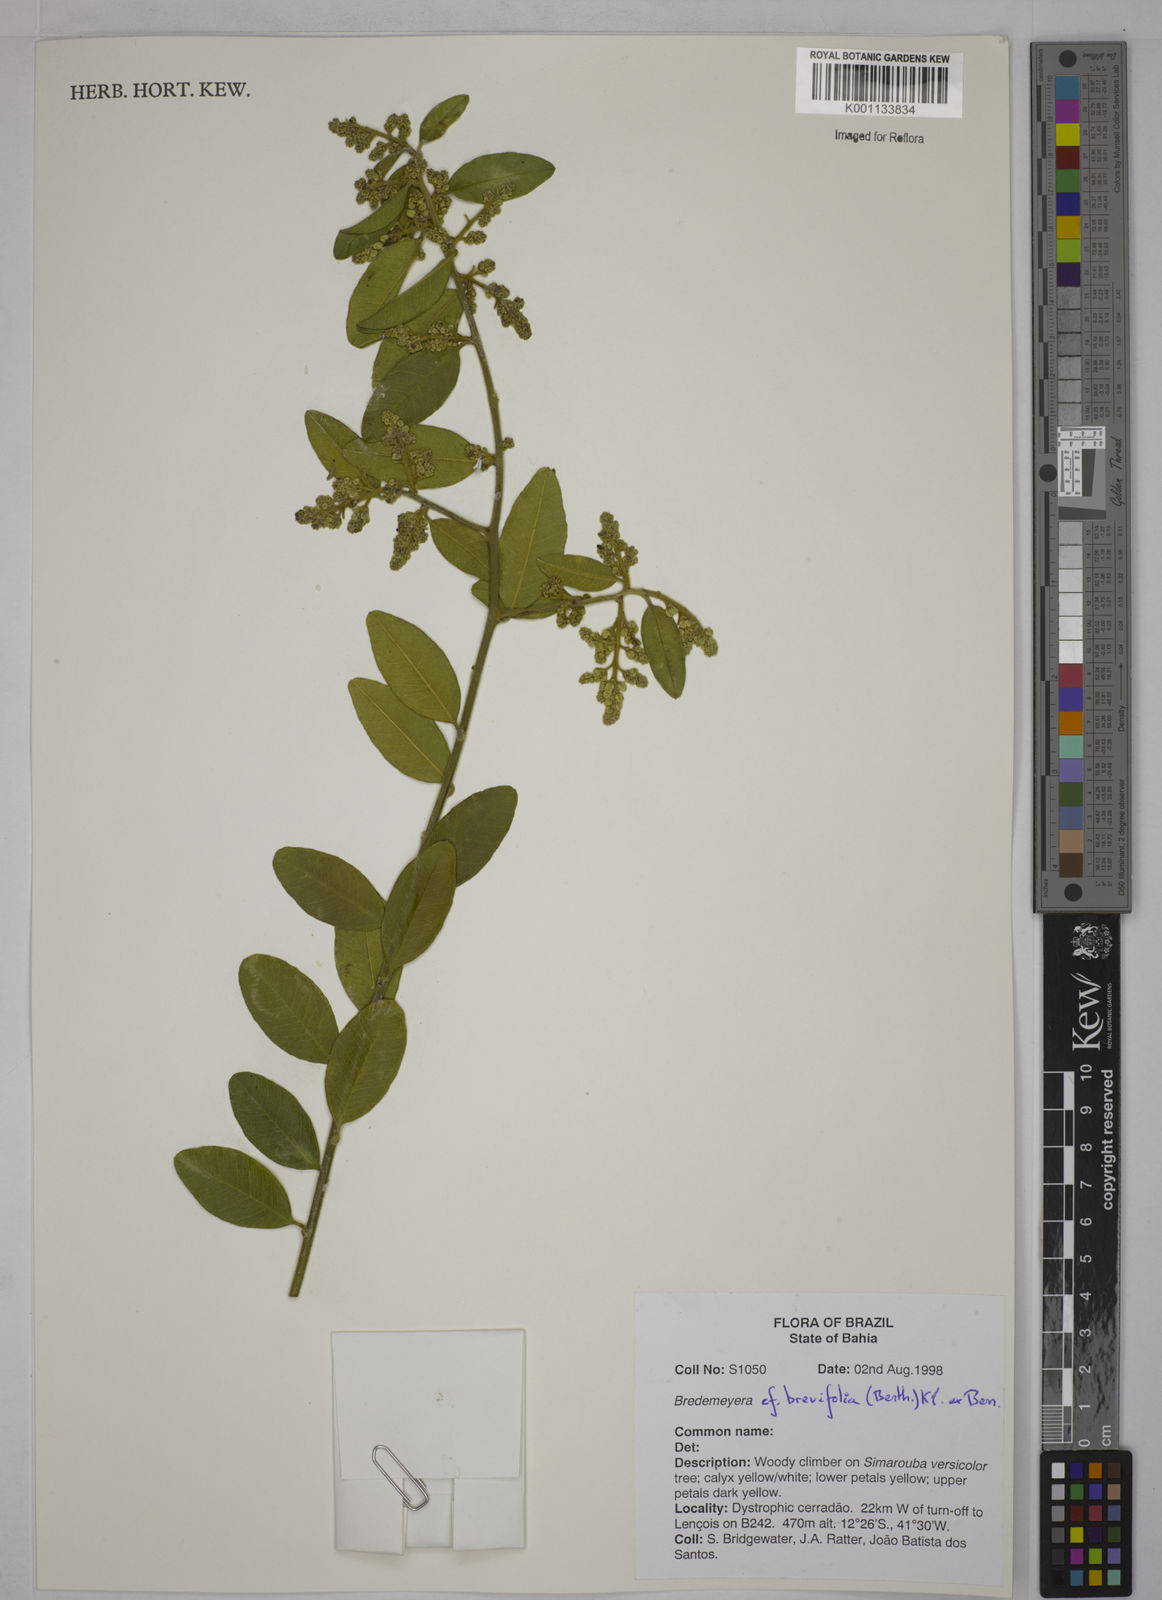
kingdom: Plantae
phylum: Tracheophyta
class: Magnoliopsida
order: Fabales
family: Polygalaceae
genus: Bredemeyera
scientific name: Bredemeyera brevifolia
